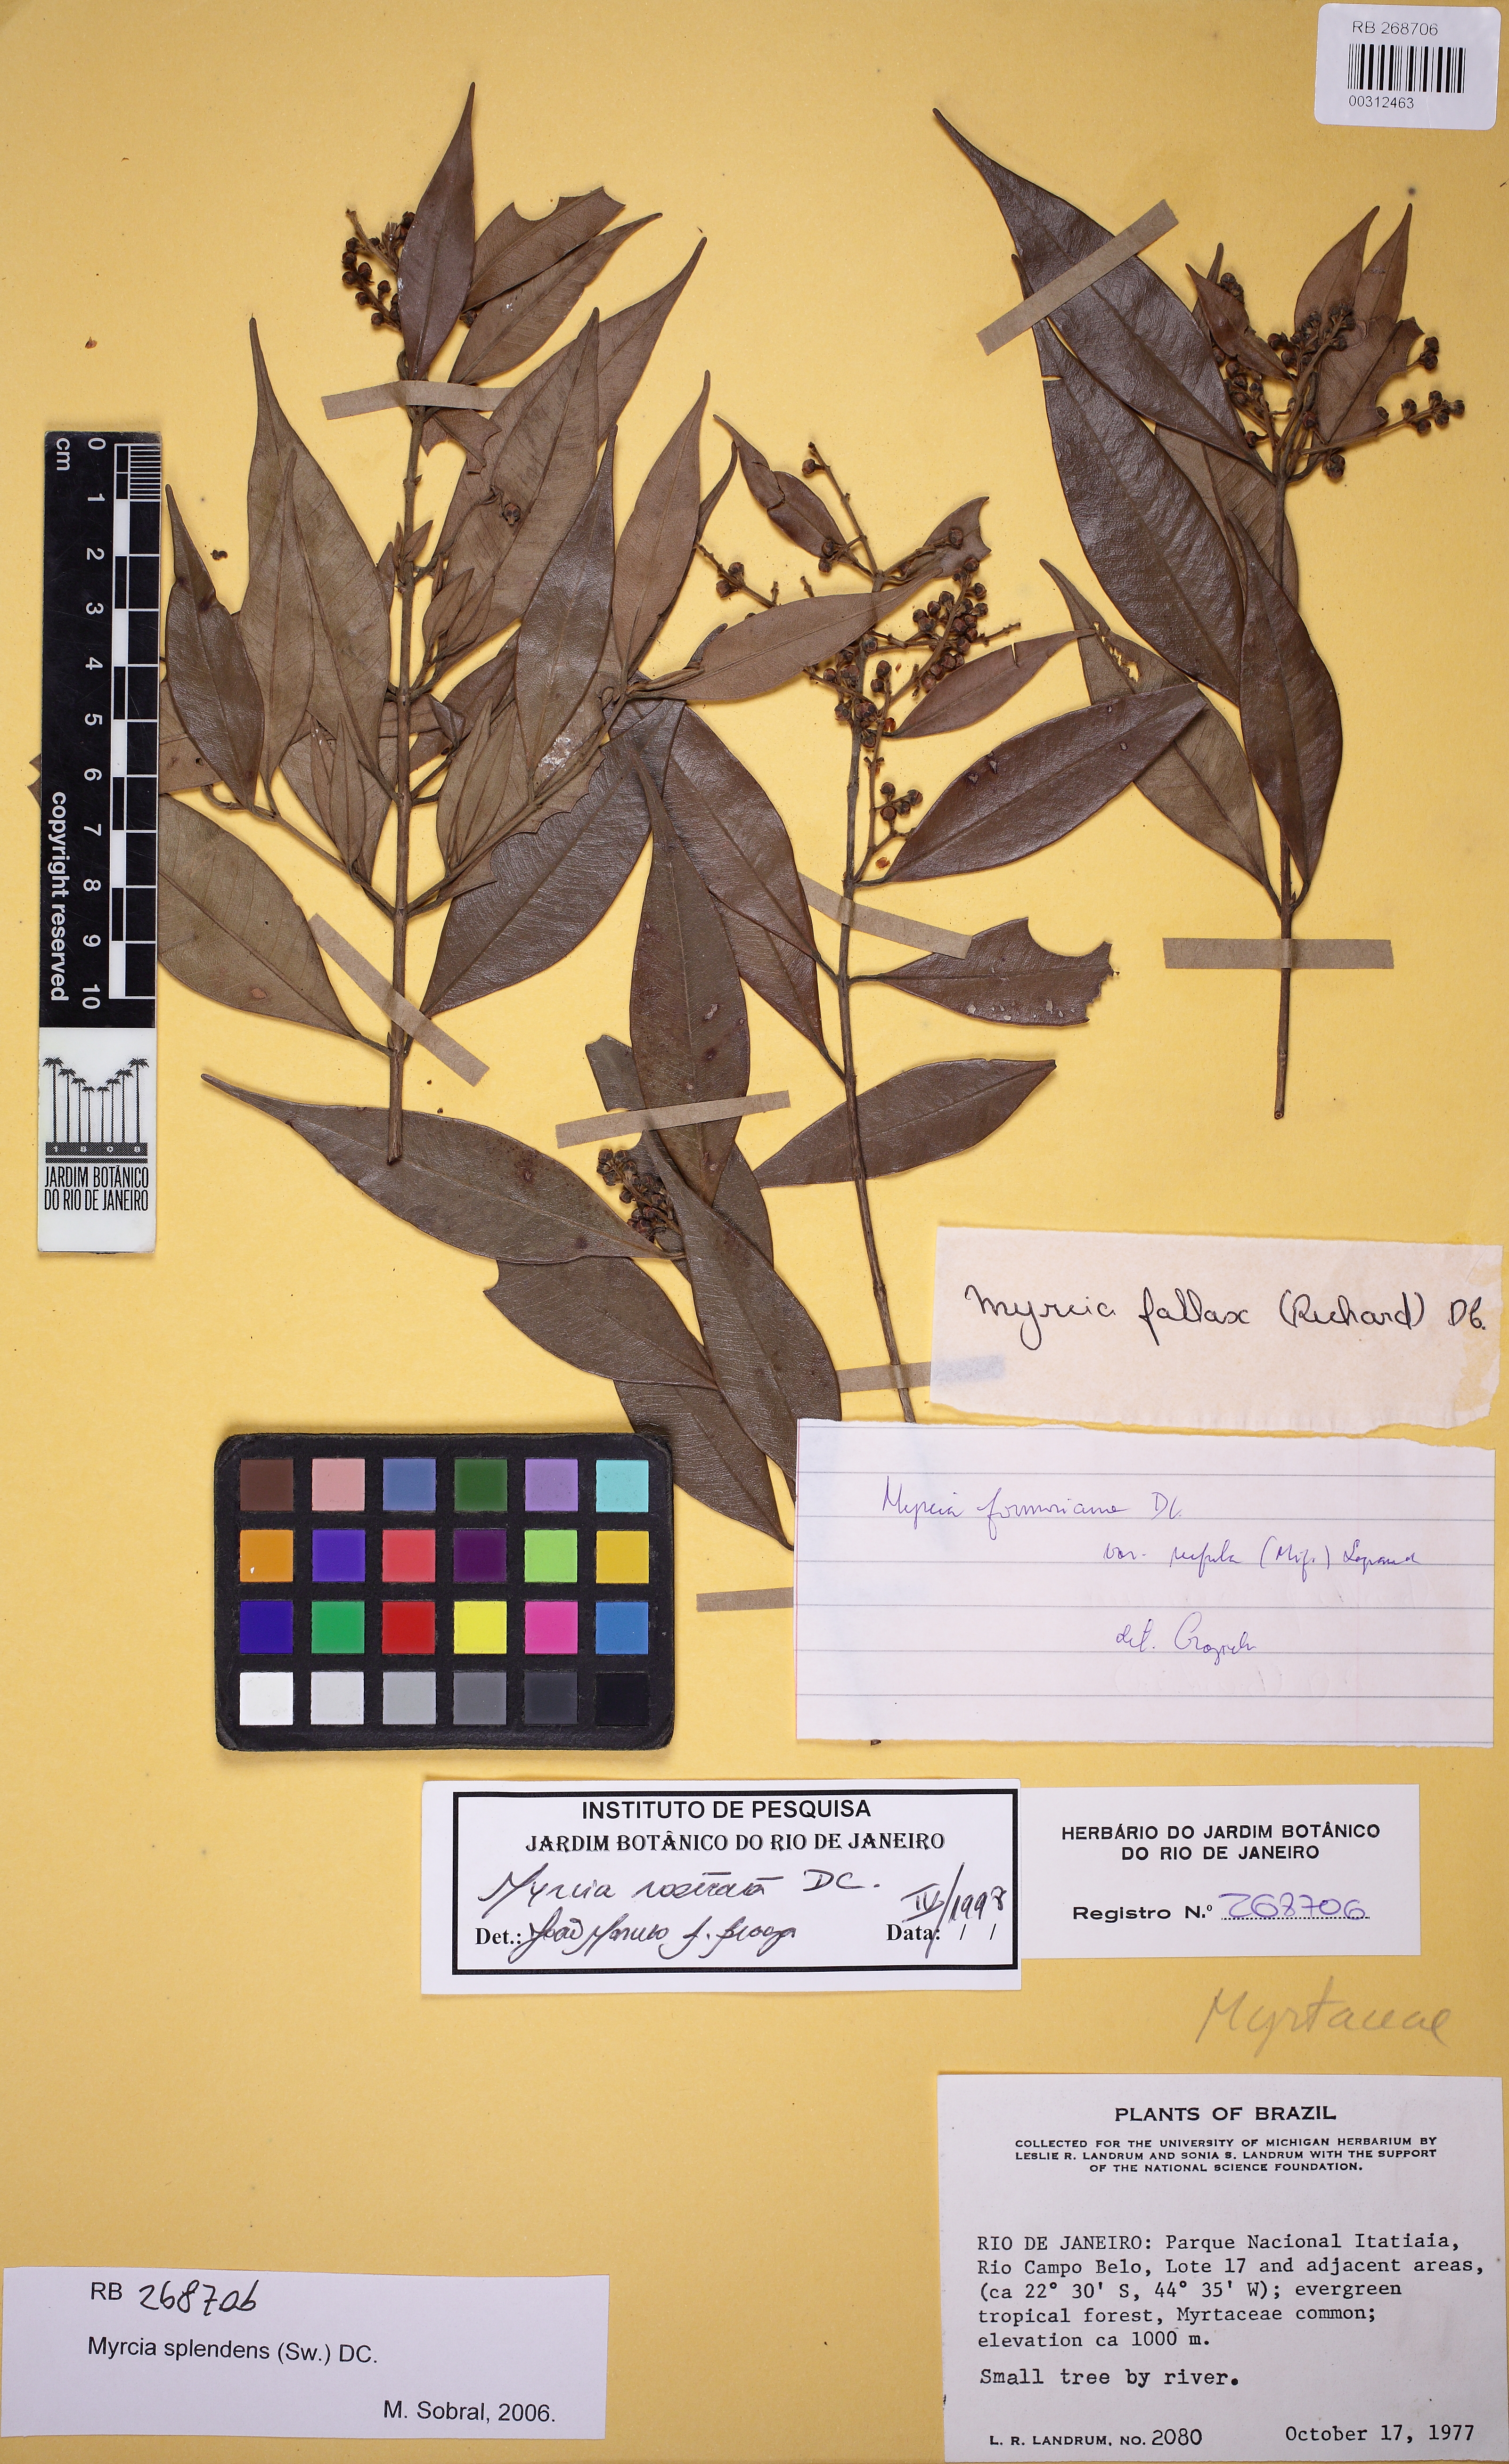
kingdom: Plantae
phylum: Tracheophyta
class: Magnoliopsida
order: Myrtales
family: Myrtaceae
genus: Myrcia
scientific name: Myrcia splendens
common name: Surinam cherry
